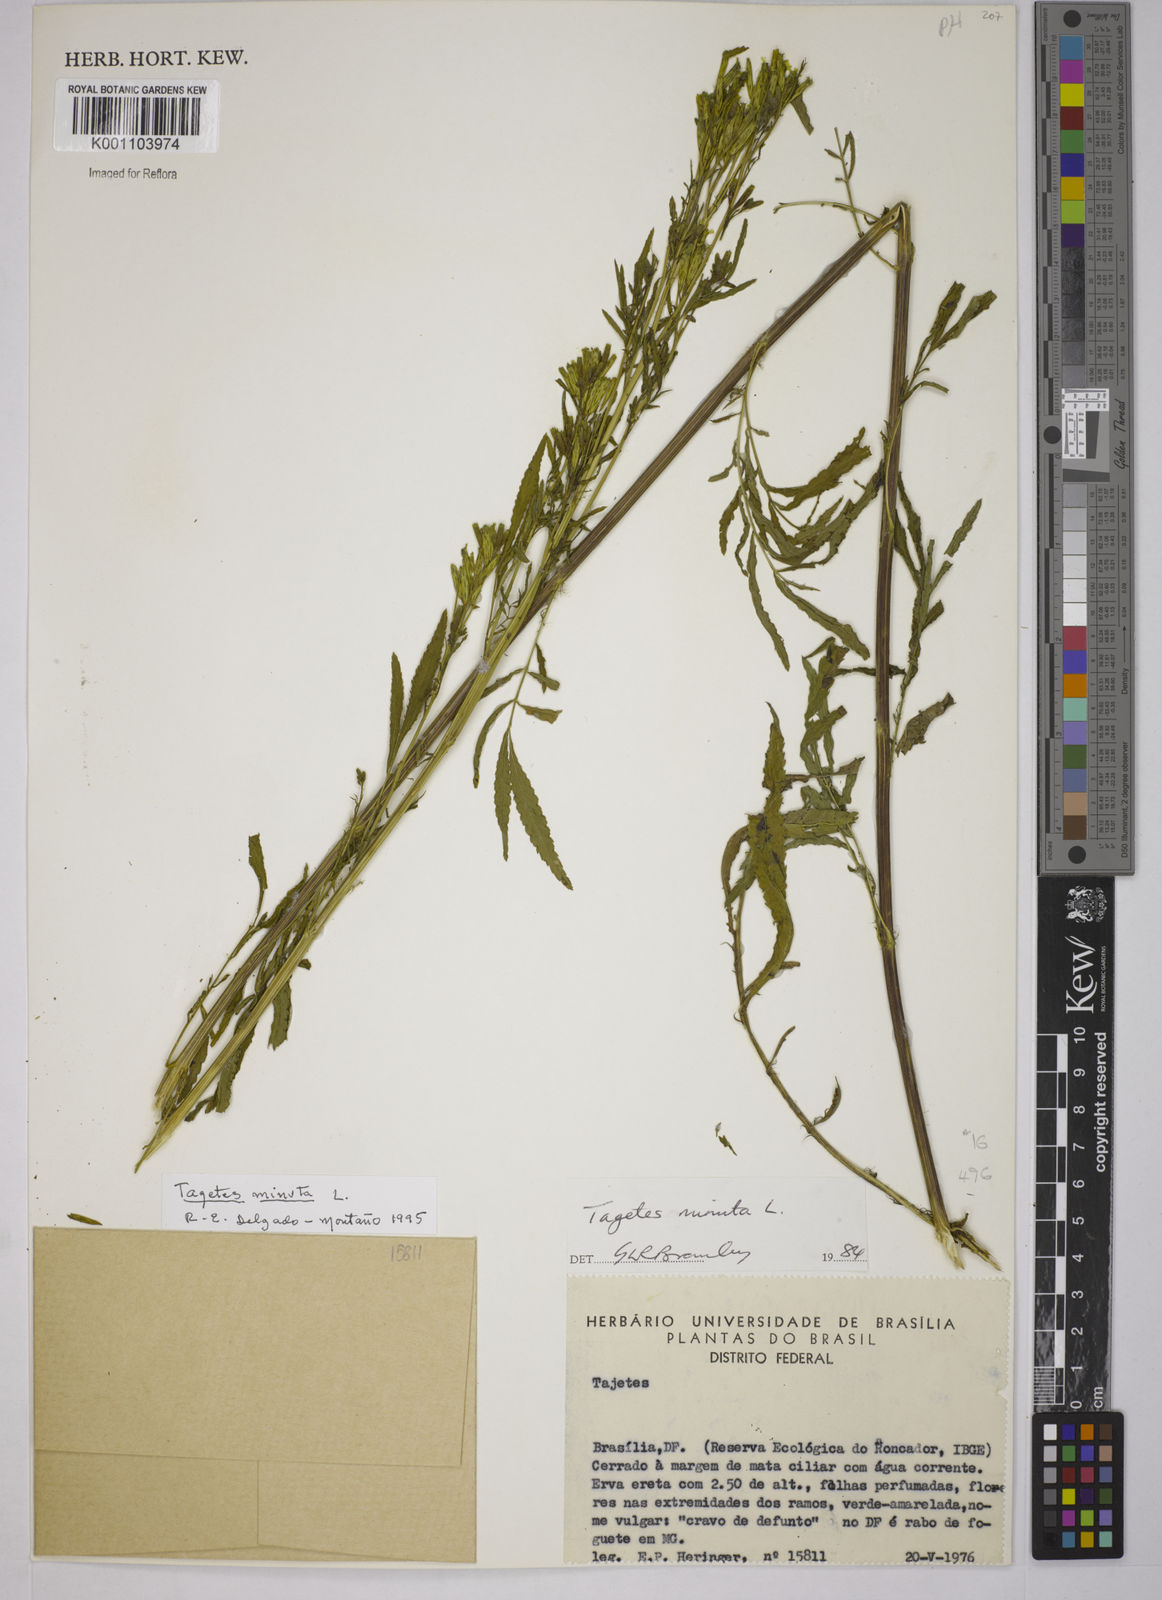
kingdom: Plantae
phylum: Tracheophyta
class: Magnoliopsida
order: Asterales
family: Asteraceae
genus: Tagetes
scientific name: Tagetes minuta
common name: Muster john henry
